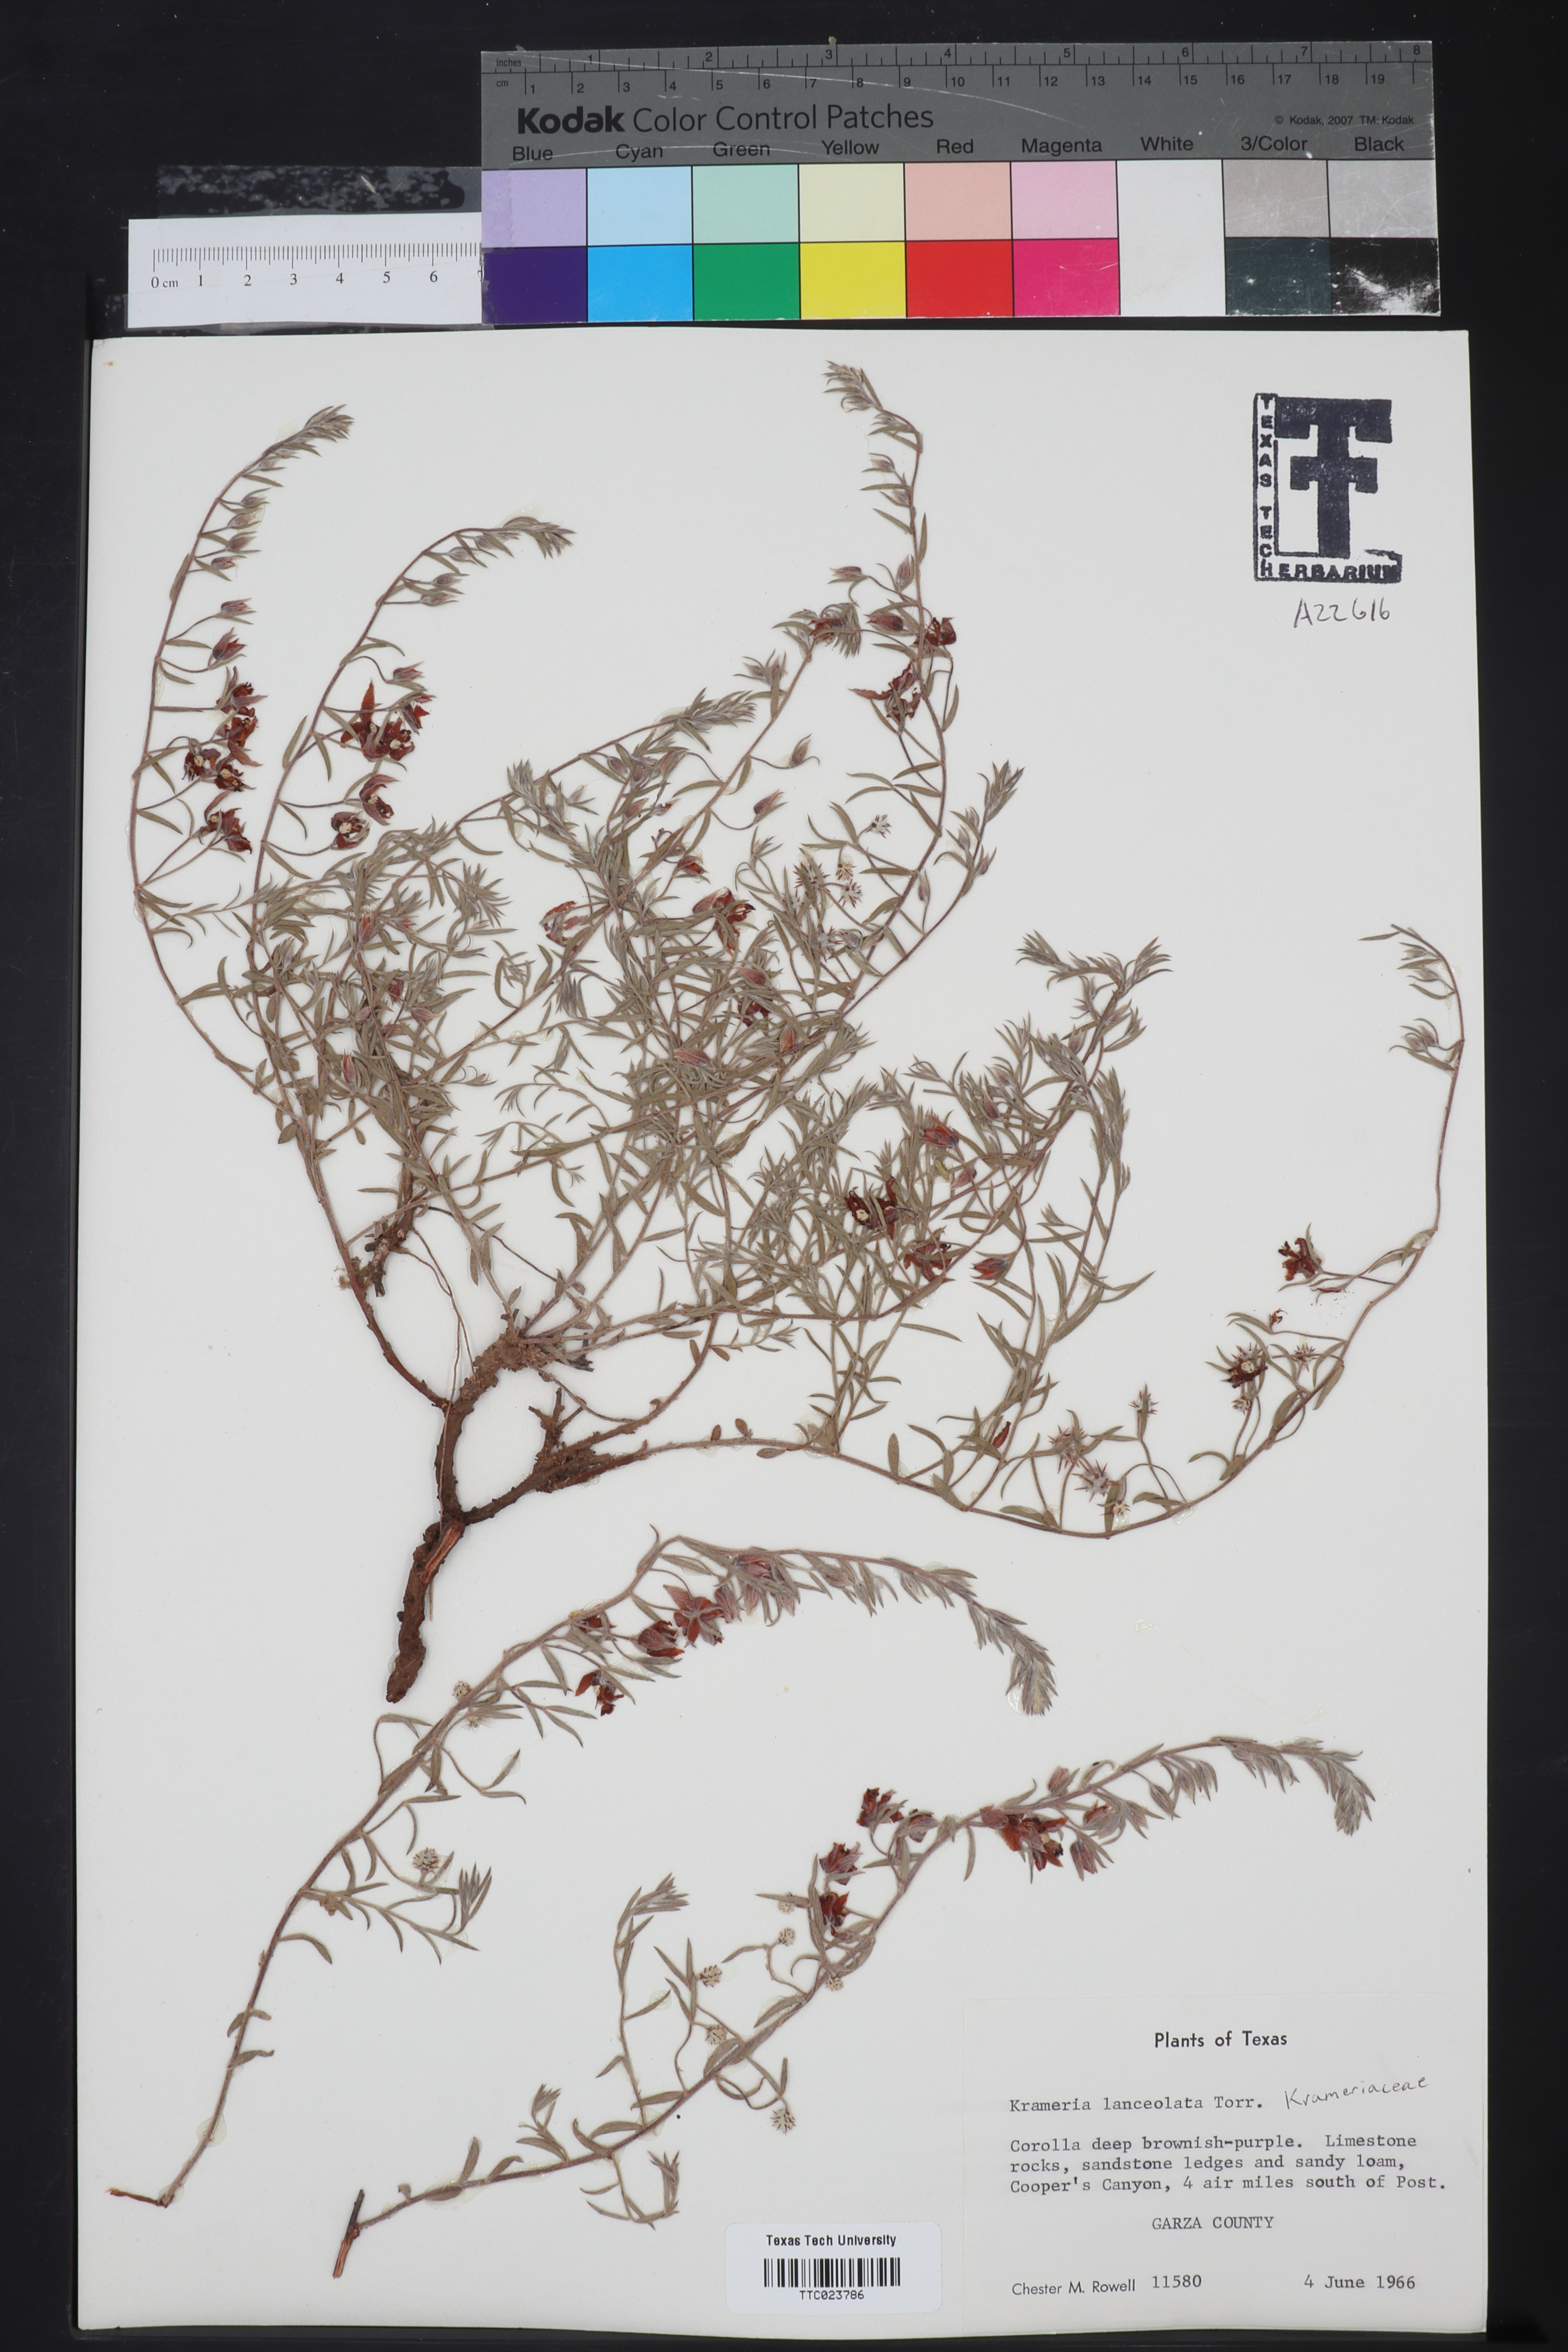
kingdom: Plantae
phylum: Tracheophyta
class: Magnoliopsida
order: Zygophyllales
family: Krameriaceae
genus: Krameria
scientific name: Krameria lanceolata
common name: Ratany
